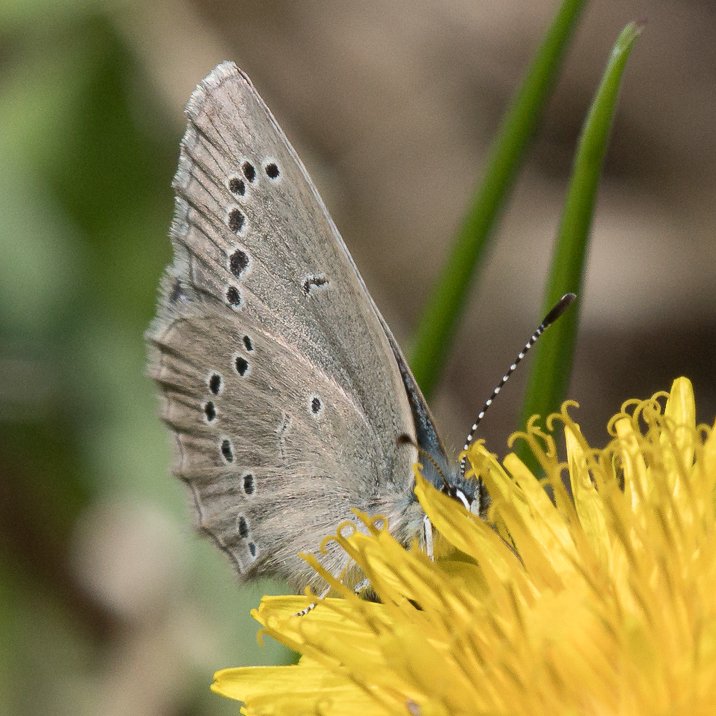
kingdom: Animalia
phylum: Arthropoda
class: Insecta
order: Lepidoptera
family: Lycaenidae
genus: Glaucopsyche
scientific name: Glaucopsyche lygdamus
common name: Silvery Blue
